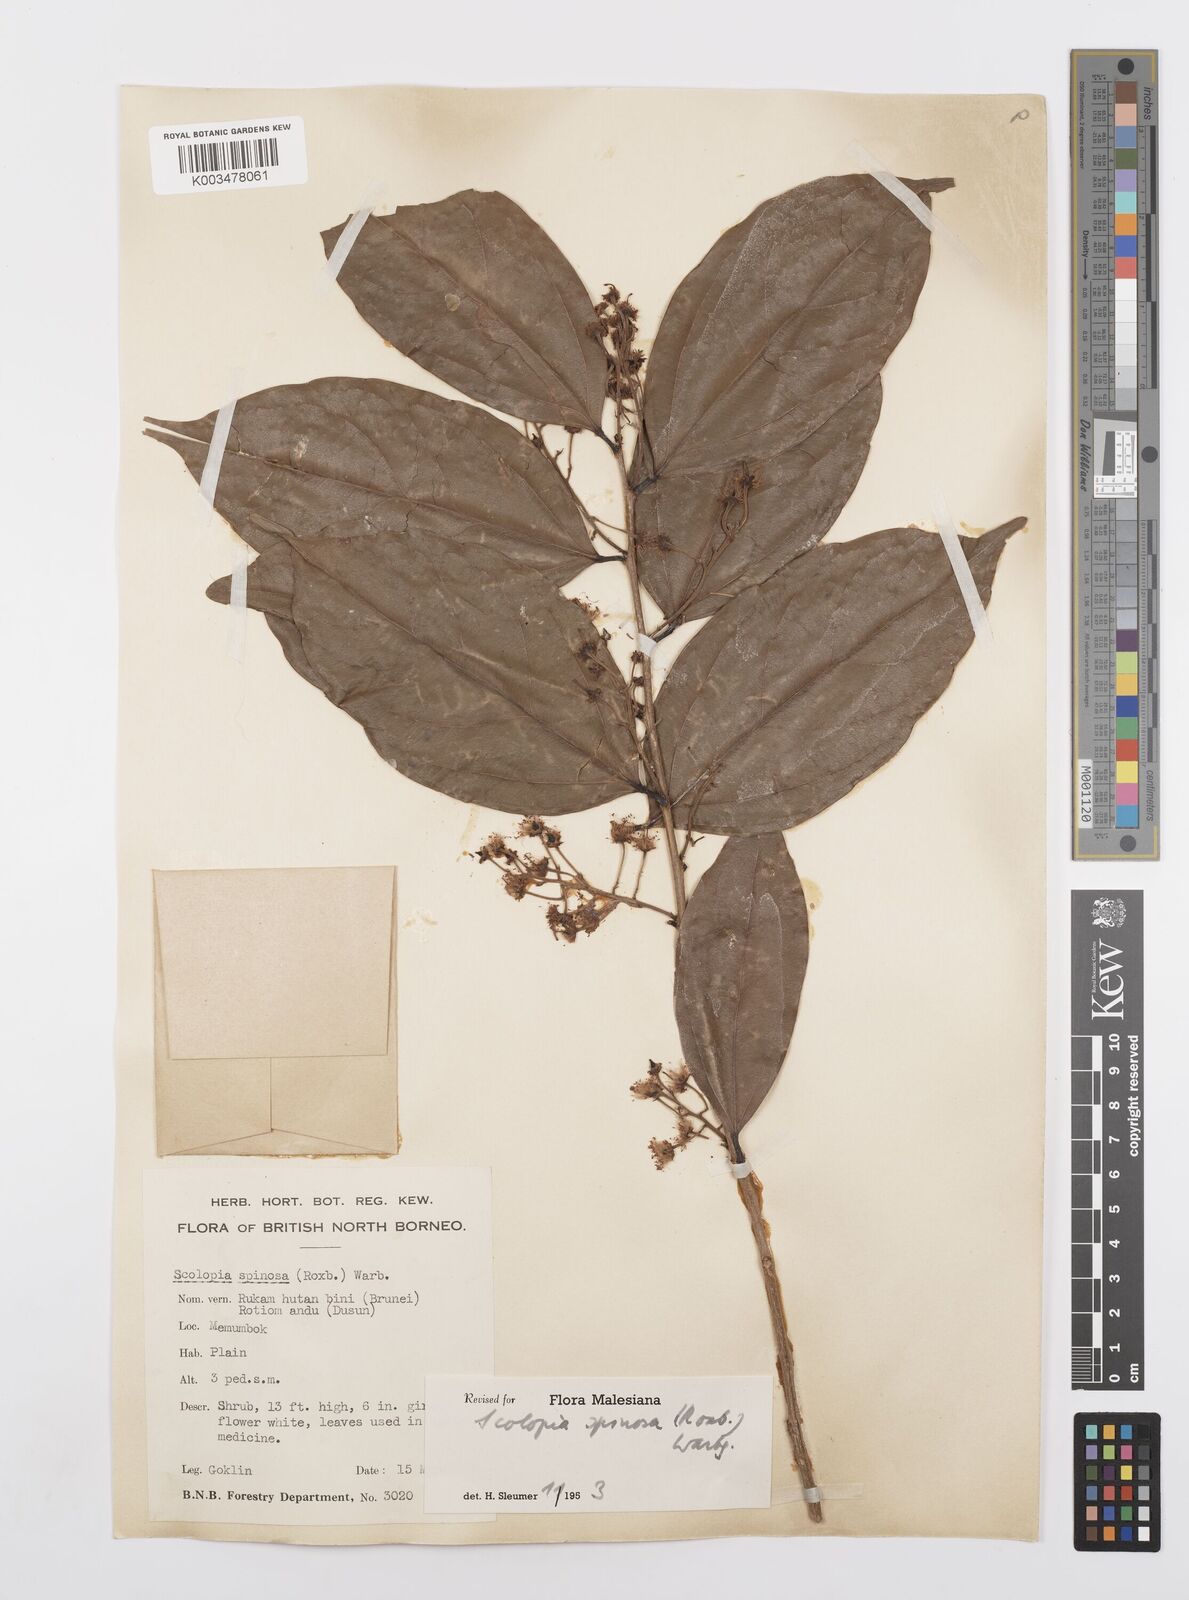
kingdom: Plantae
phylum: Tracheophyta
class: Magnoliopsida
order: Malpighiales
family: Salicaceae
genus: Scolopia
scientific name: Scolopia spinosa
